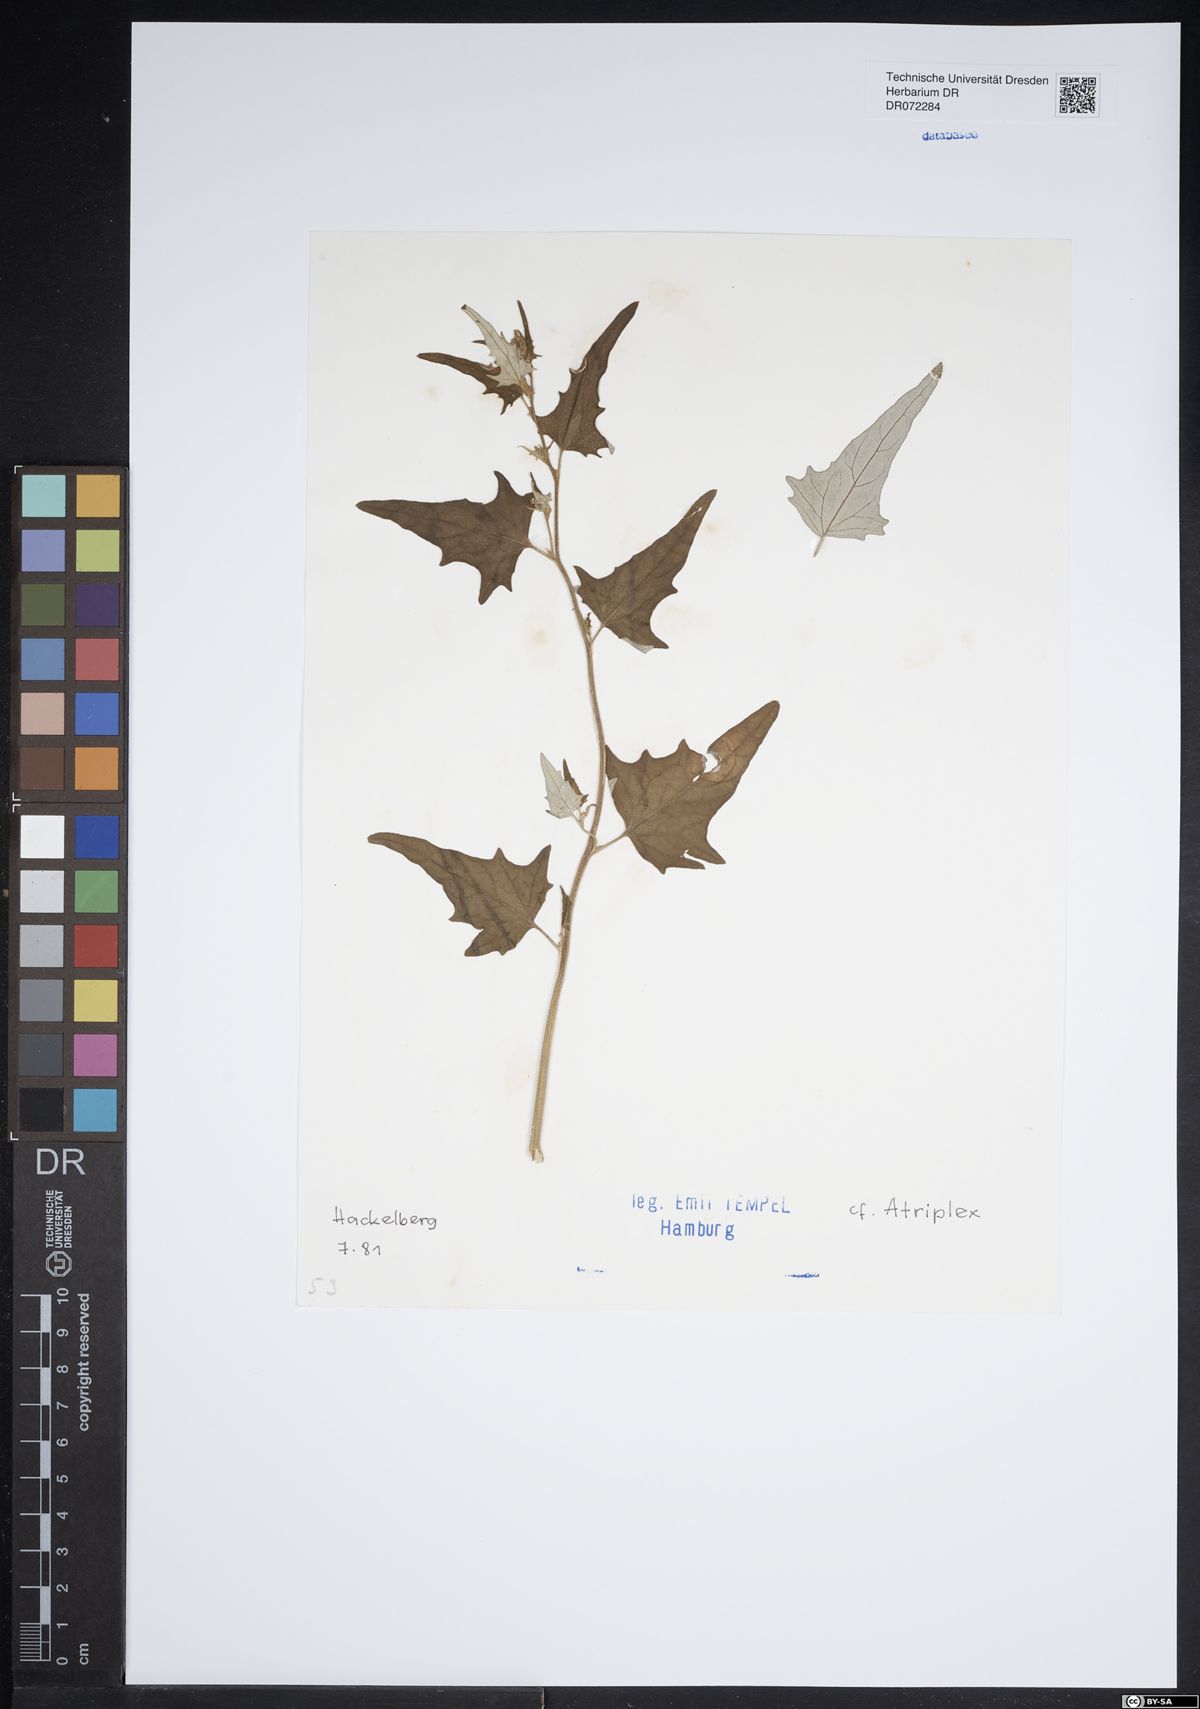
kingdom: Plantae
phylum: Tracheophyta
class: Magnoliopsida
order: Caryophyllales
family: Amaranthaceae
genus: Atriplex
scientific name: Atriplex
